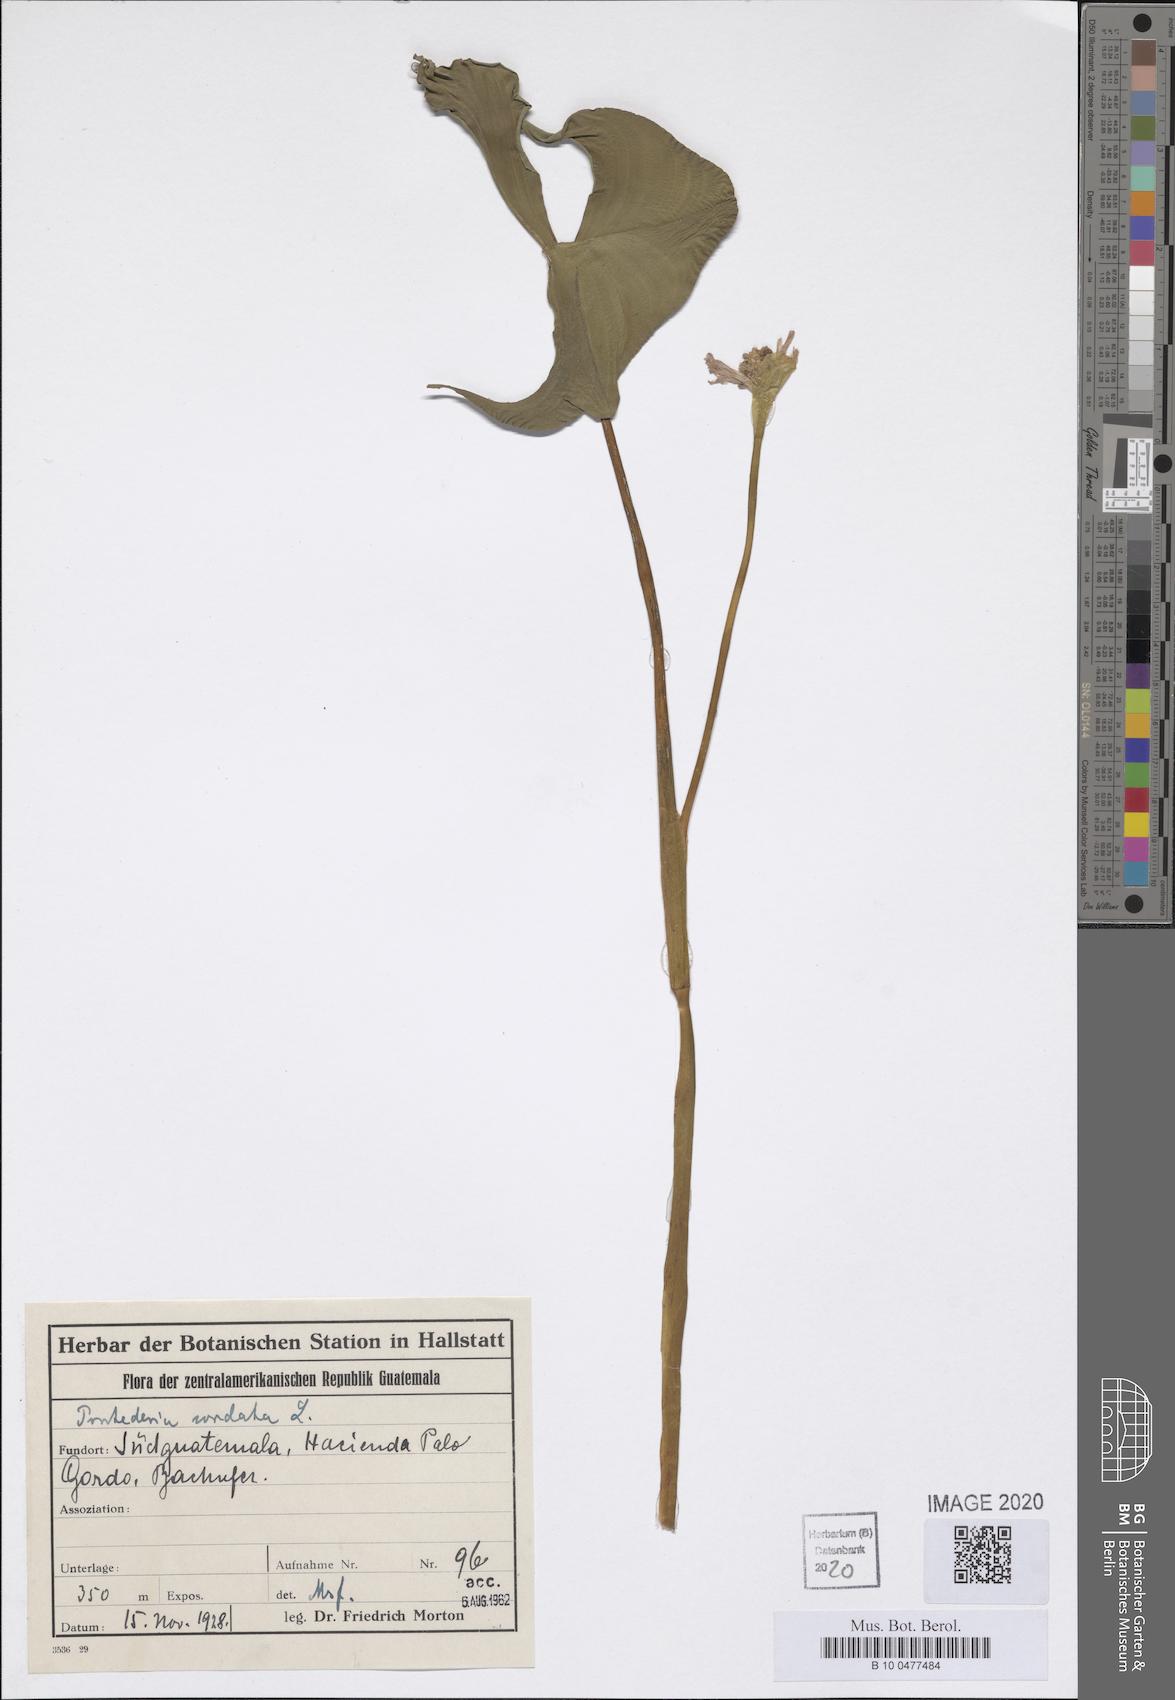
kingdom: Plantae
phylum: Tracheophyta
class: Liliopsida
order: Commelinales
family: Pontederiaceae
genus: Pontederia
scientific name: Pontederia cordata
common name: Pickerelweed
